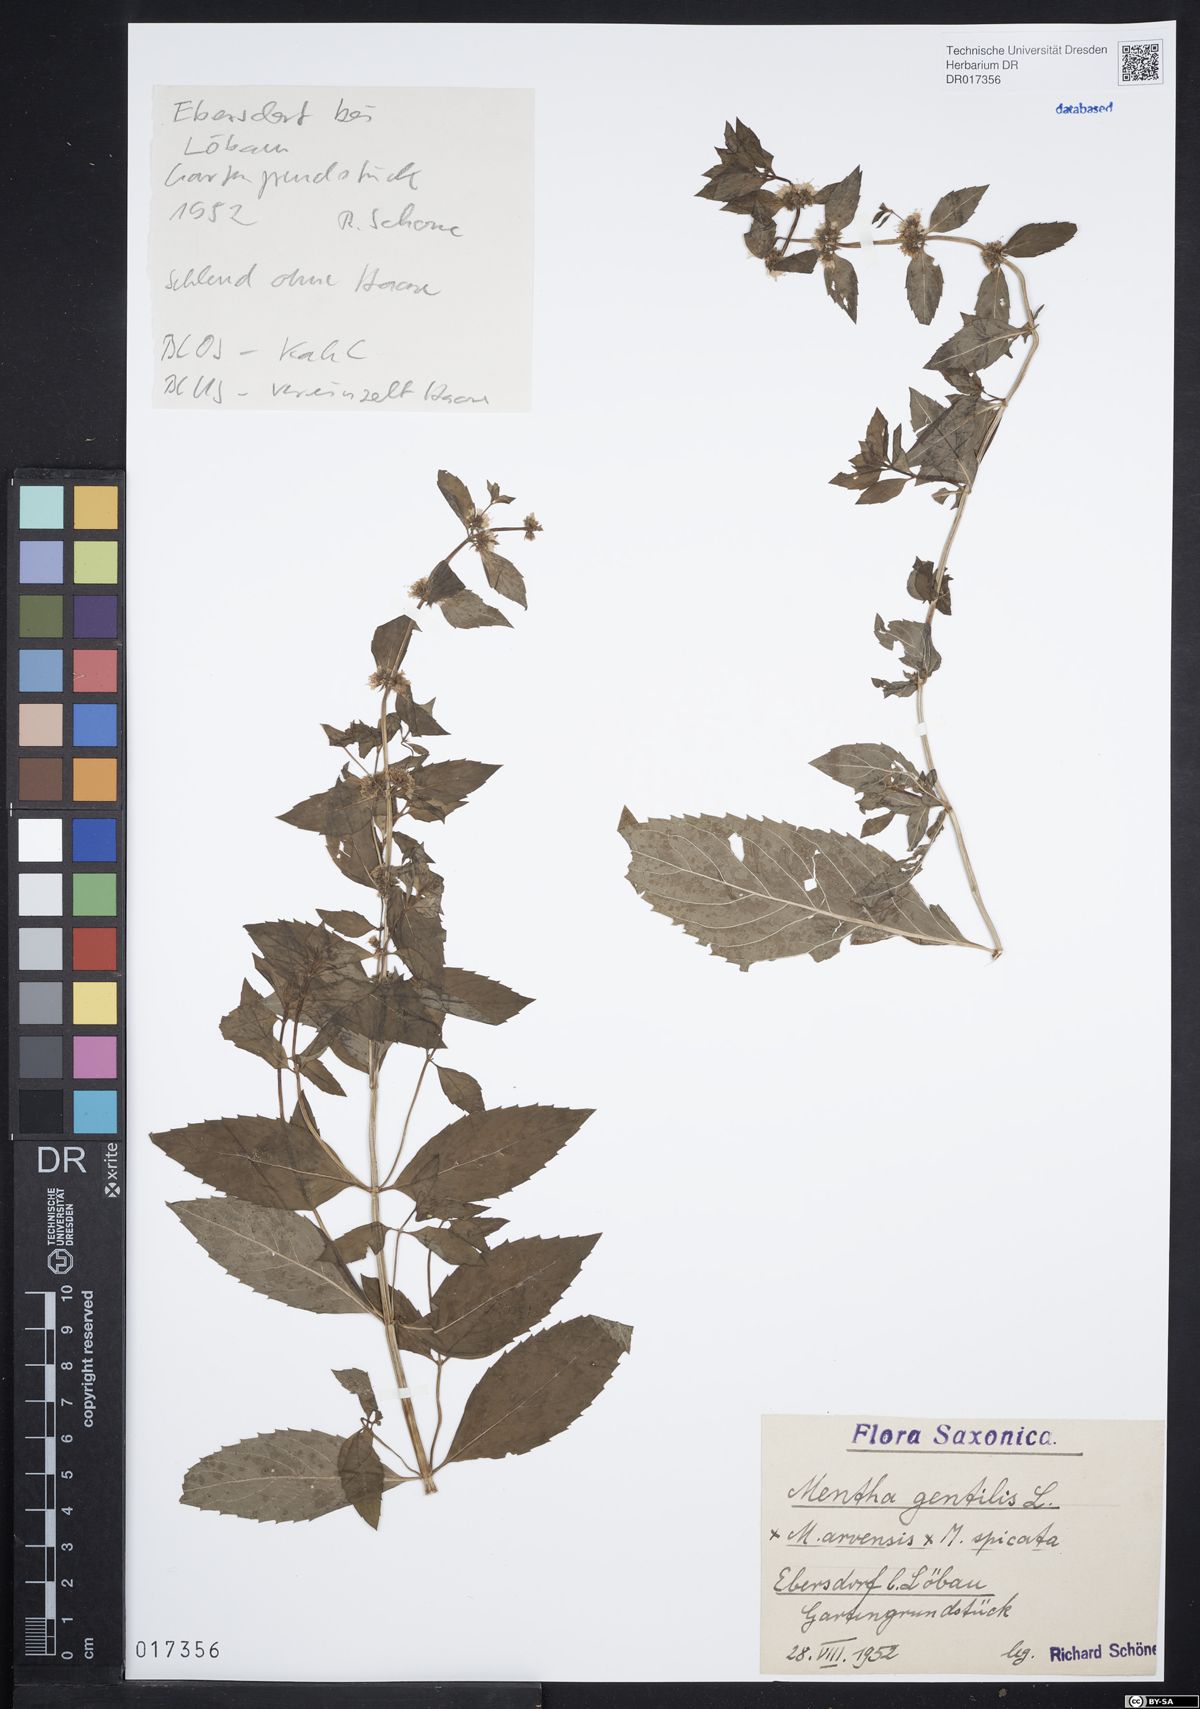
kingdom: Plantae
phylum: Tracheophyta
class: Magnoliopsida
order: Lamiales
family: Lamiaceae
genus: Mentha
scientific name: Mentha gracilis
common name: Bushy mint
